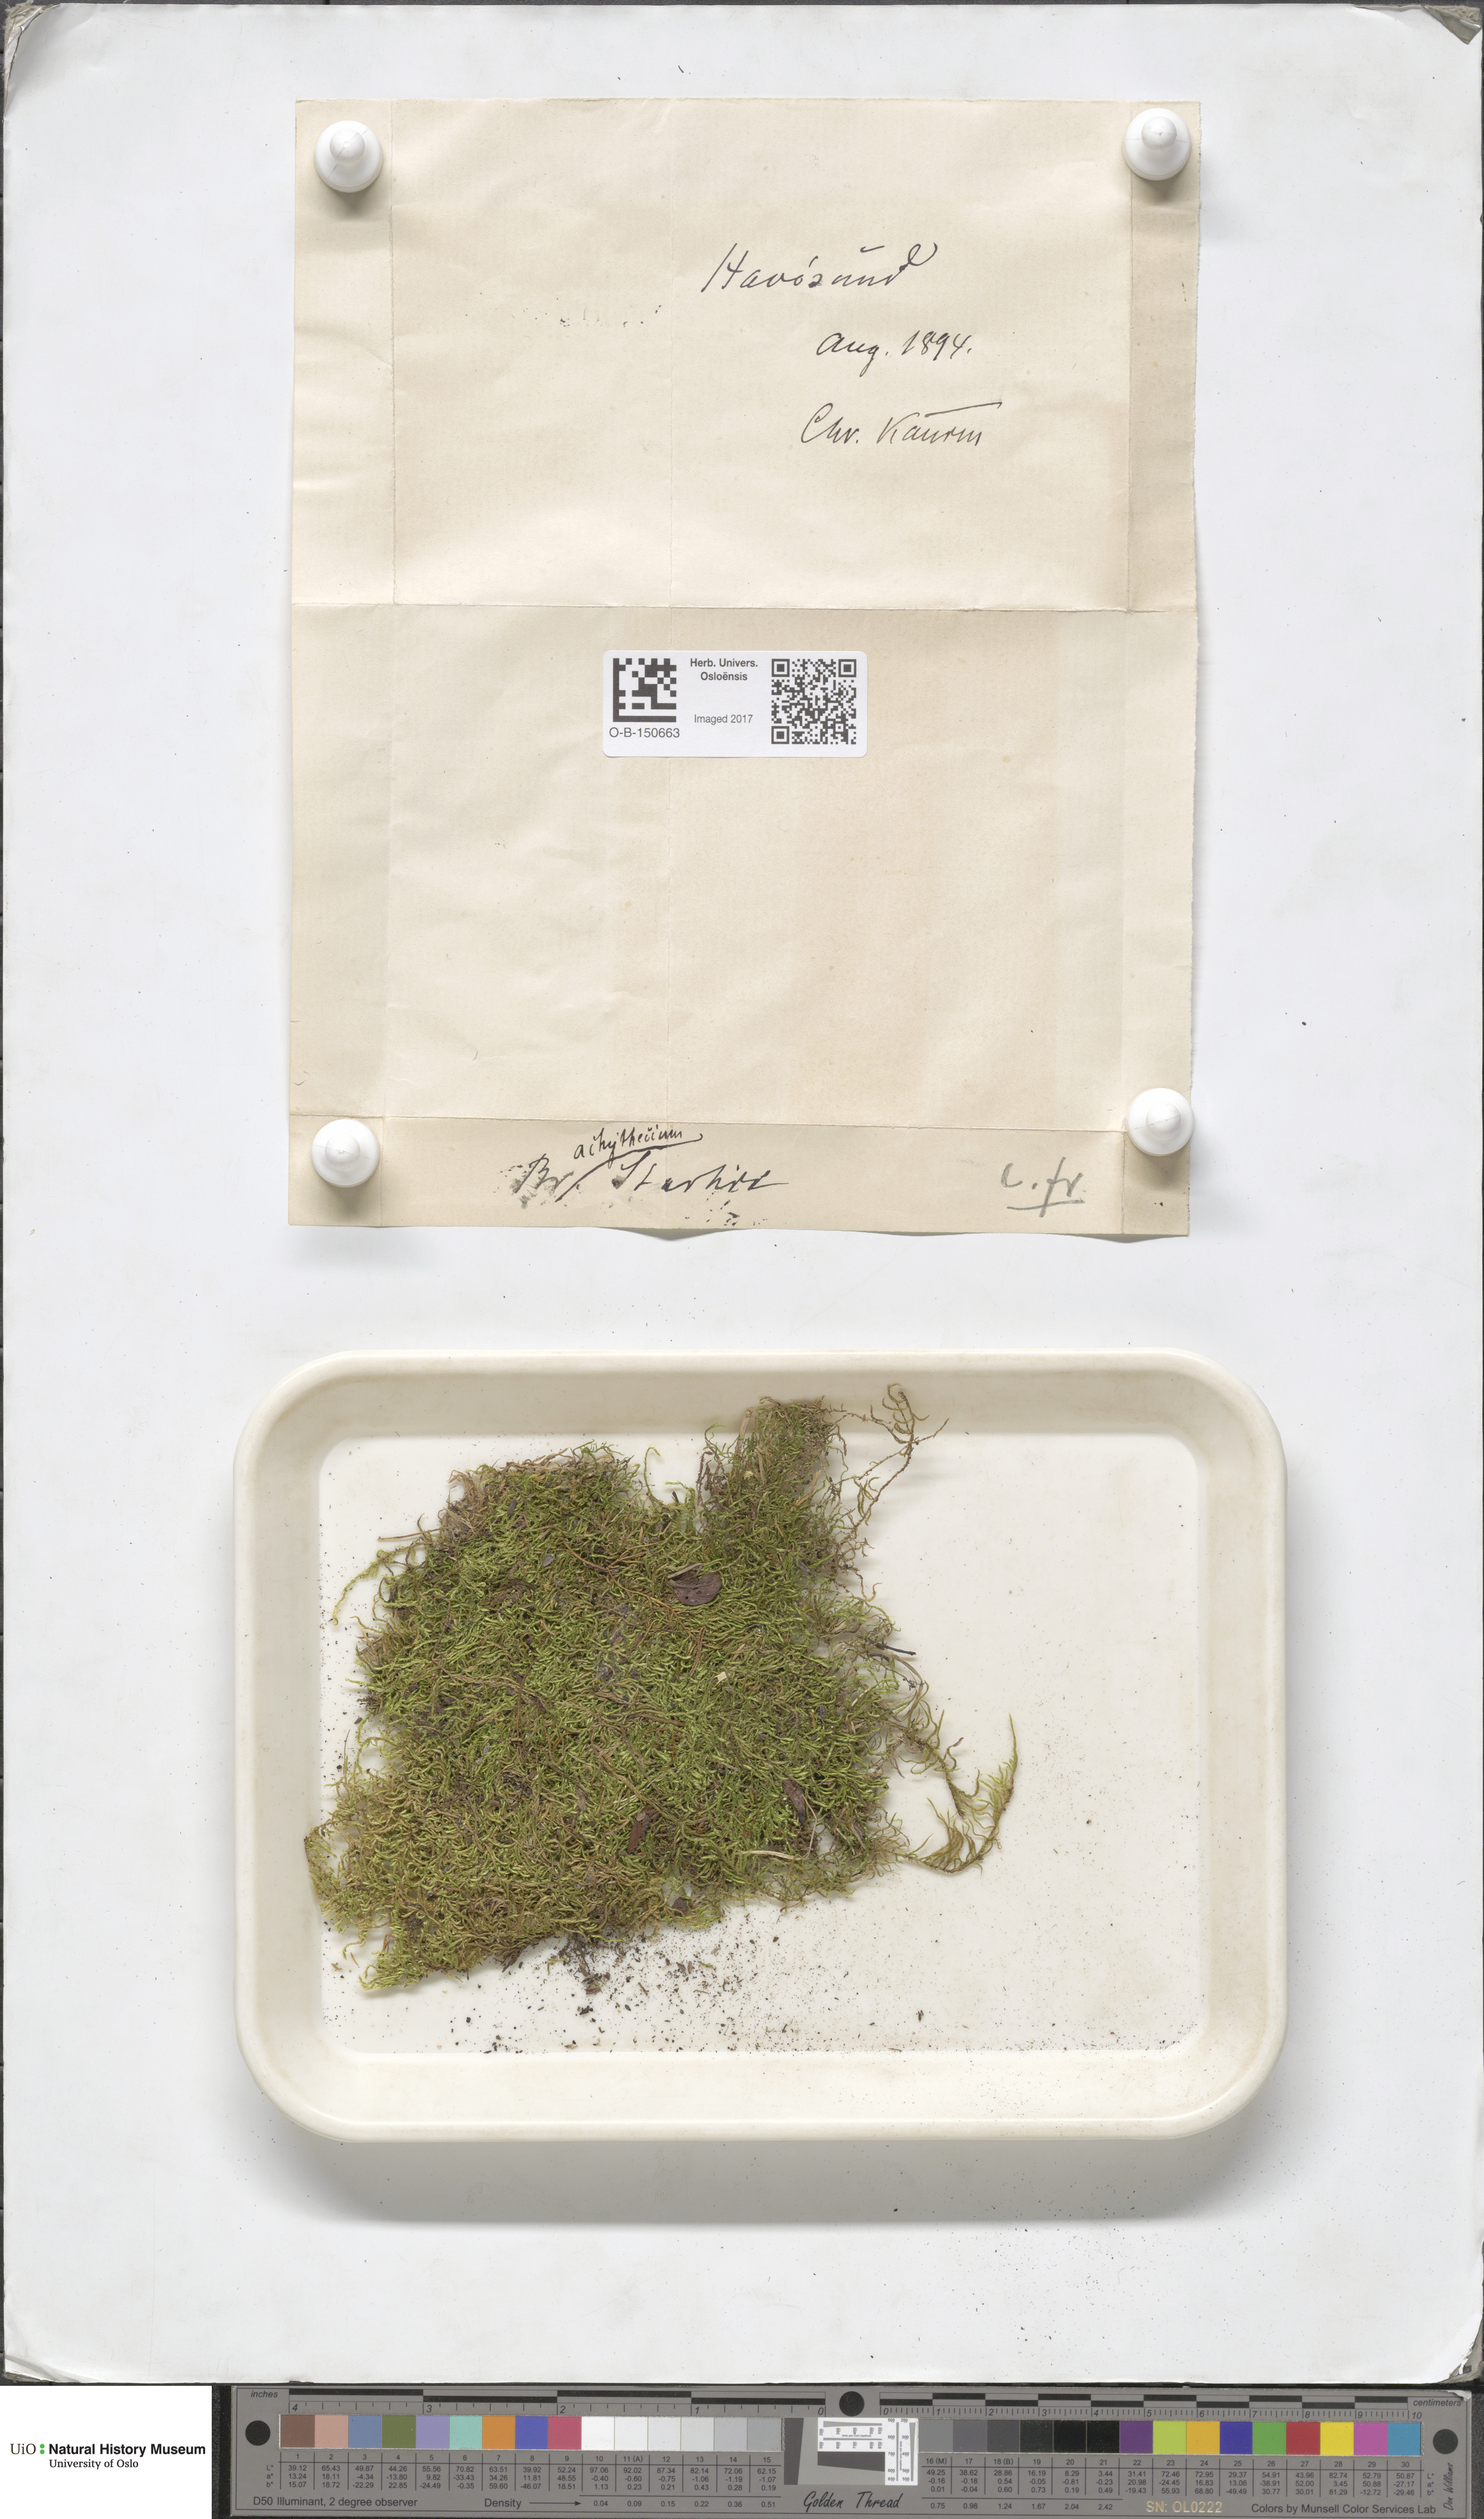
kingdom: Plantae
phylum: Bryophyta
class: Bryopsida
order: Hypnales
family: Brachytheciaceae
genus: Sciuro-hypnum
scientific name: Sciuro-hypnum starkei
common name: Starke's feather-moss
